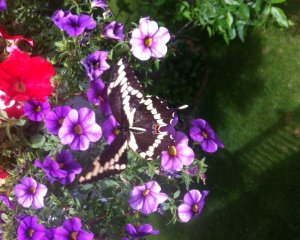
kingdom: Animalia
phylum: Arthropoda
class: Insecta
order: Lepidoptera
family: Papilionidae
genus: Papilio
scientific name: Papilio cresphontes
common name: Eastern Giant Swallowtail
